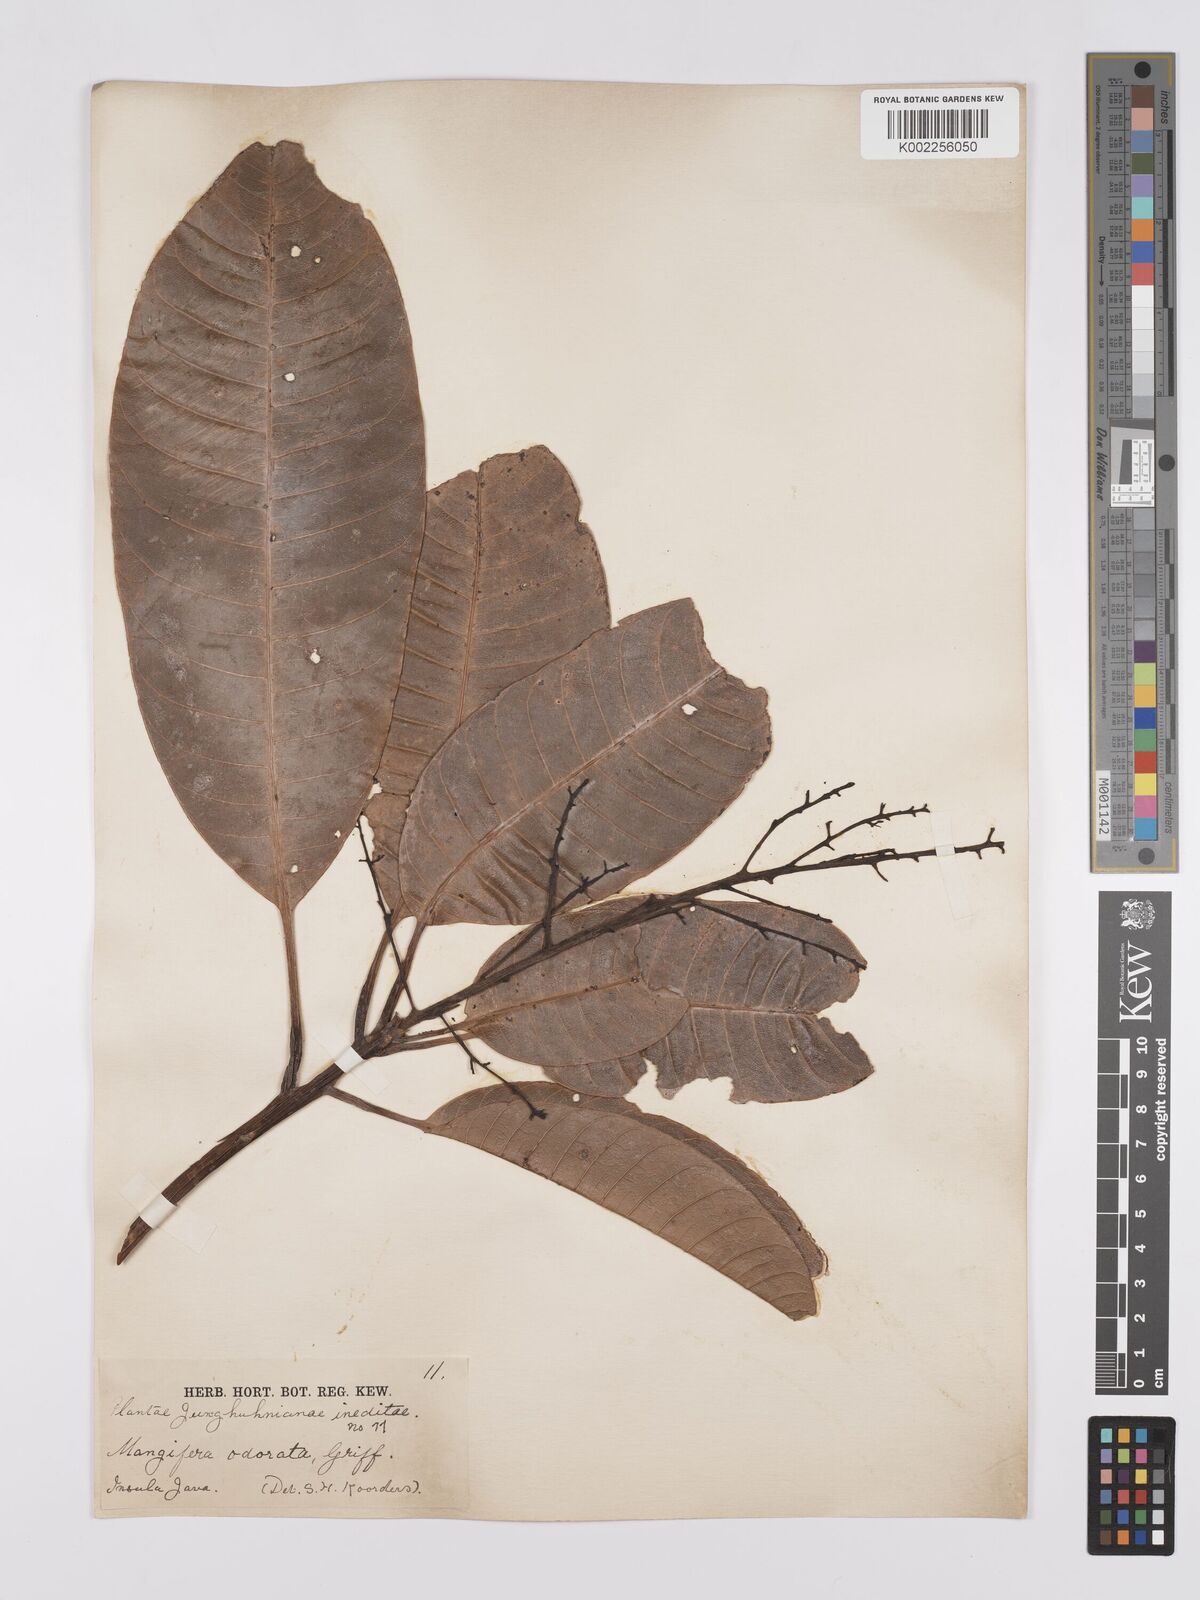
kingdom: Plantae
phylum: Tracheophyta
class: Magnoliopsida
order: Sapindales
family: Anacardiaceae
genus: Mangifera
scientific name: Mangifera odorata
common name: Saipan mango
